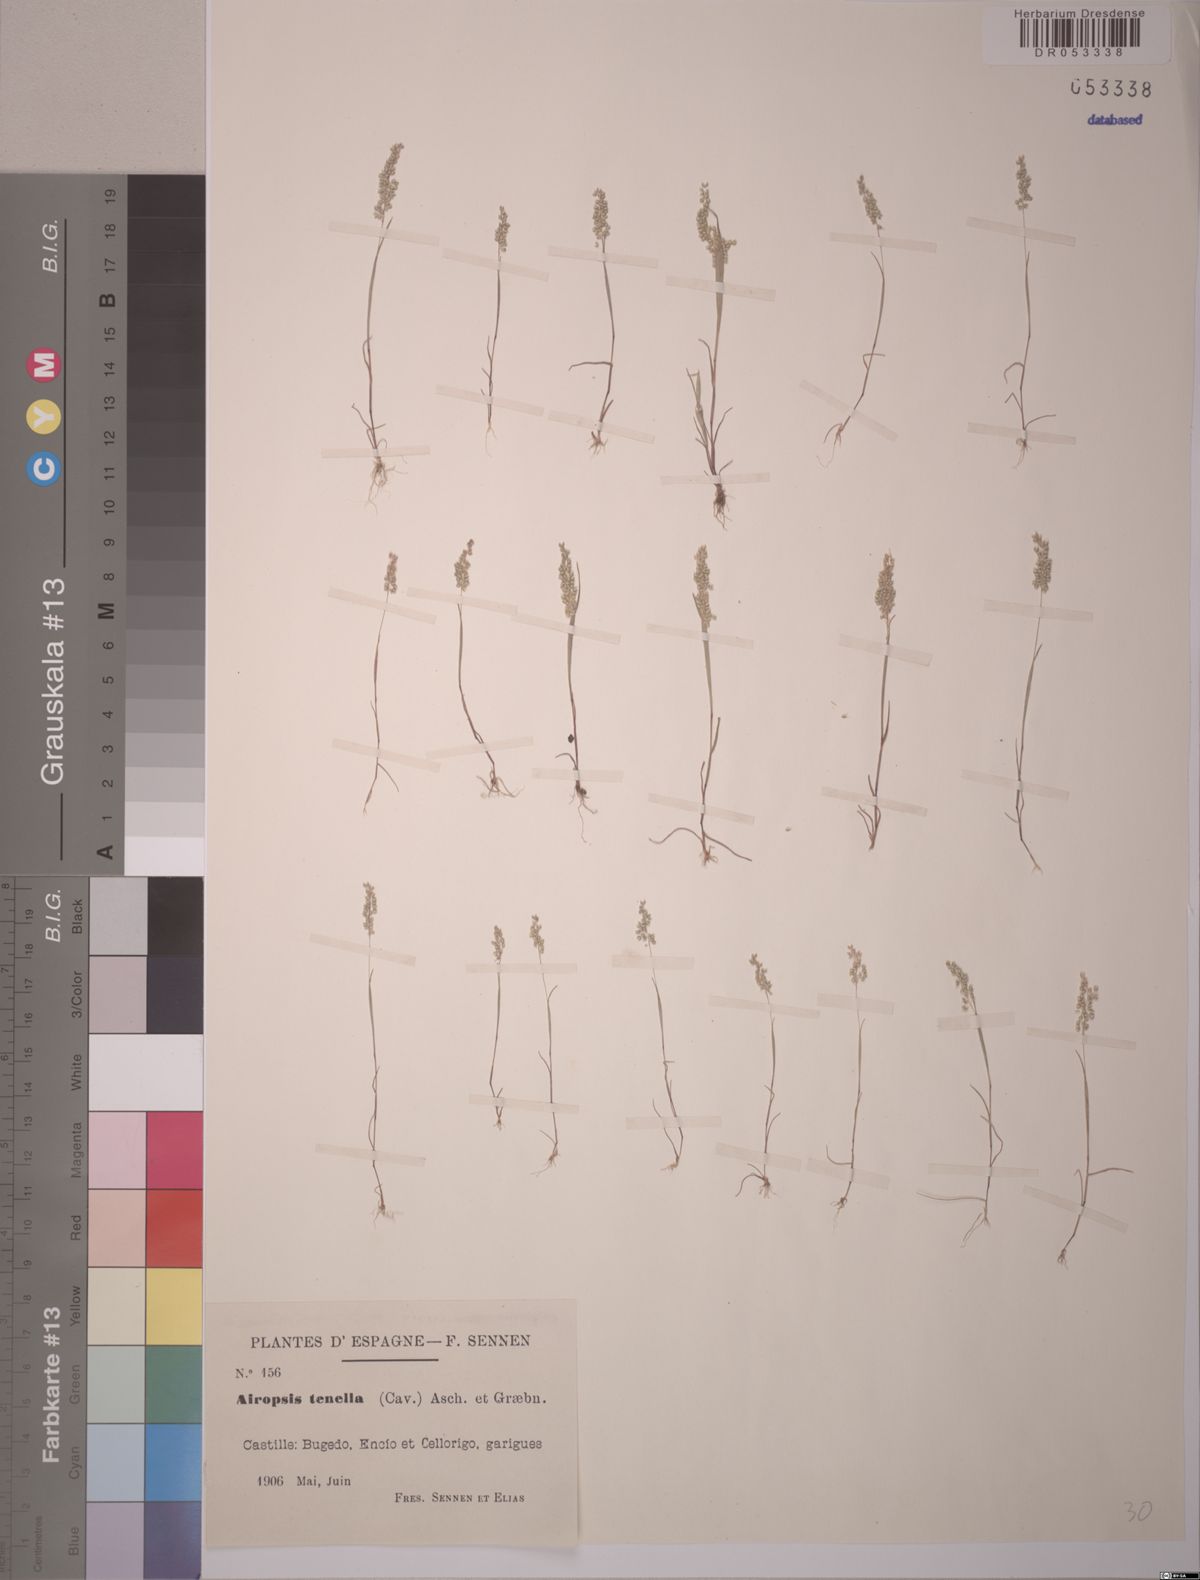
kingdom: Plantae
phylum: Tracheophyta
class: Liliopsida
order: Poales
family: Poaceae
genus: Airopsis
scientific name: Airopsis tenella
